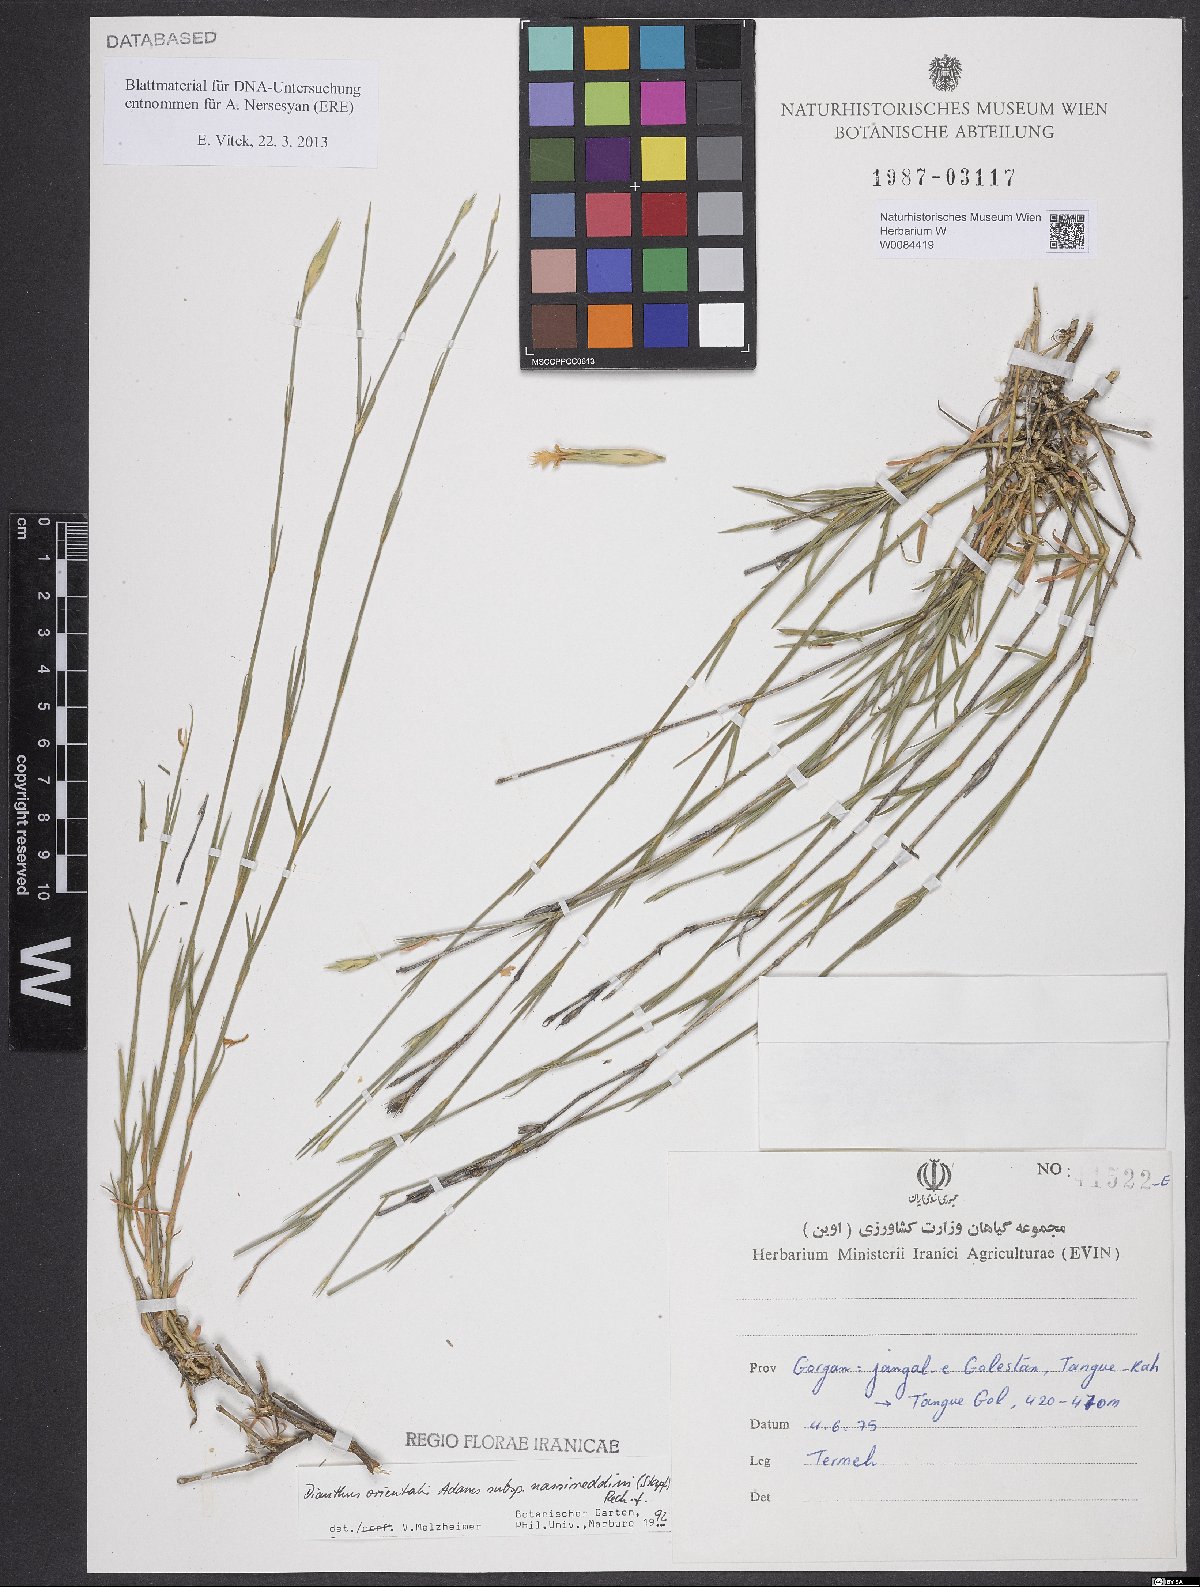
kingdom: Plantae
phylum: Tracheophyta
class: Magnoliopsida
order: Caryophyllales
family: Caryophyllaceae
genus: Dianthus
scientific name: Dianthus orientalis
